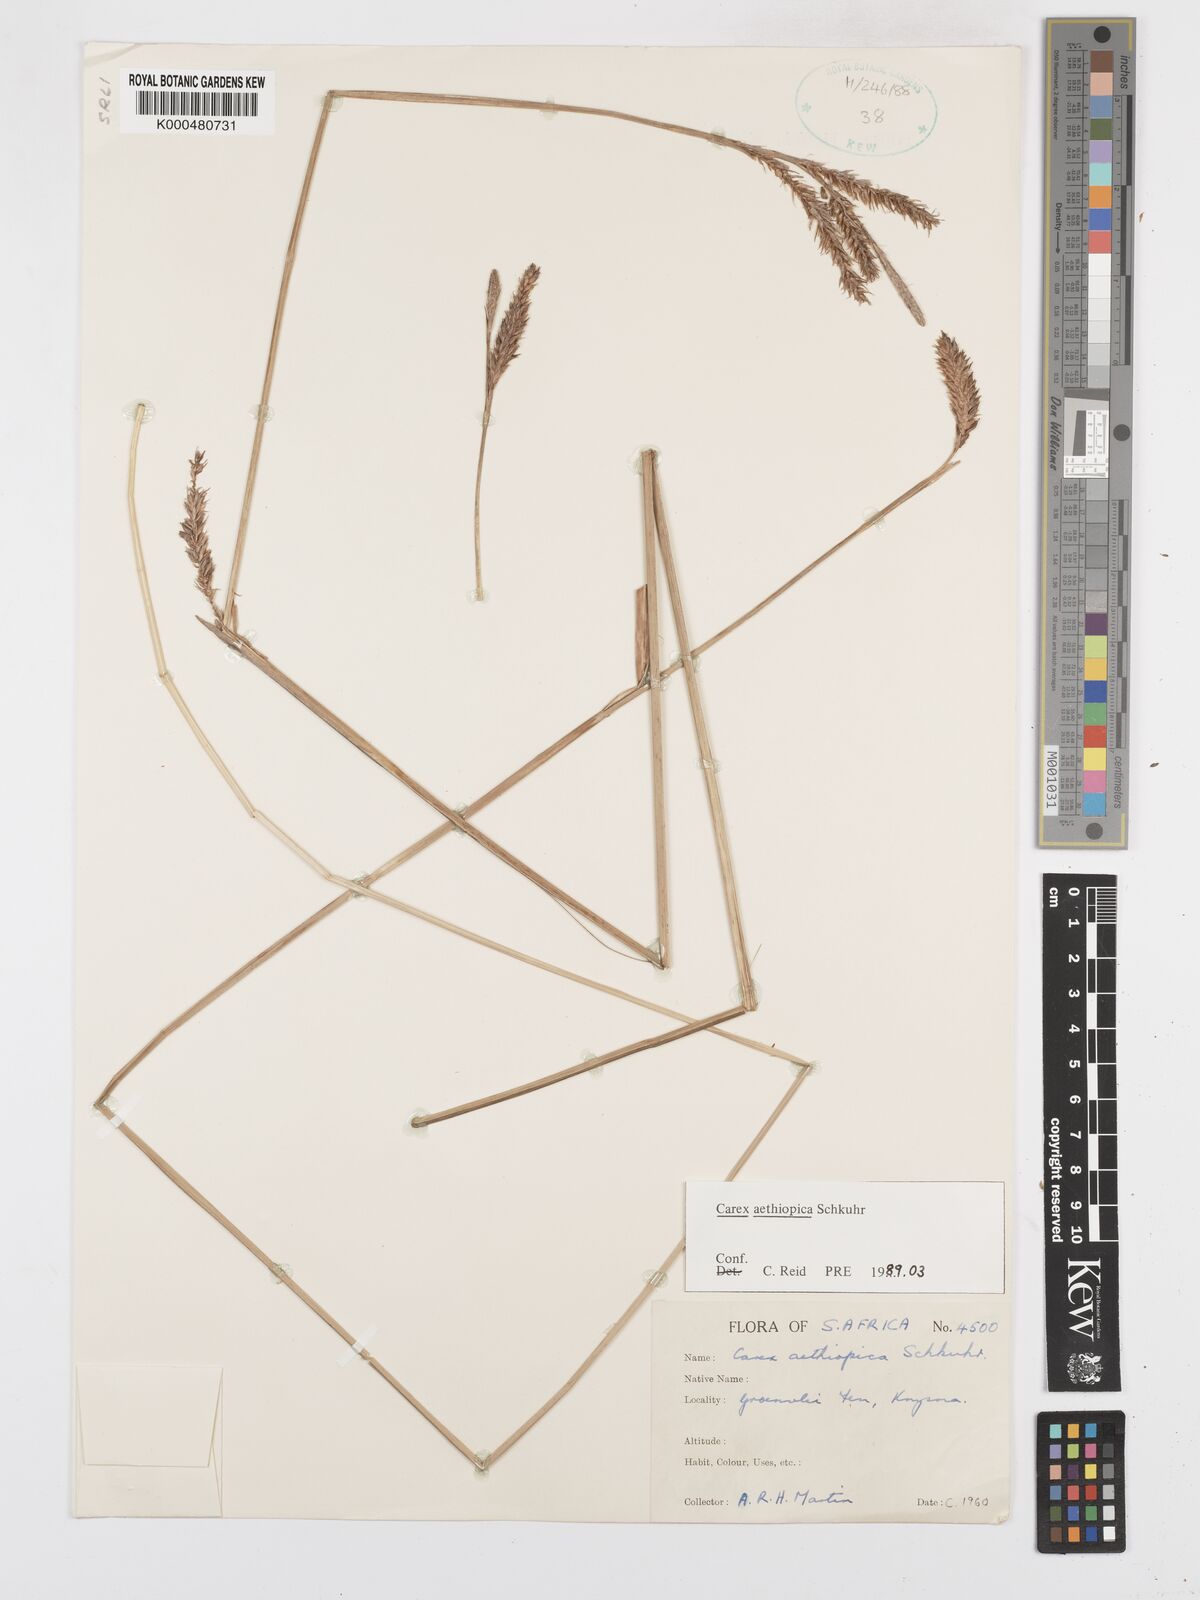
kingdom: Plantae
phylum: Tracheophyta
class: Liliopsida
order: Poales
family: Cyperaceae
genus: Carex
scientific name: Carex aethiopica
